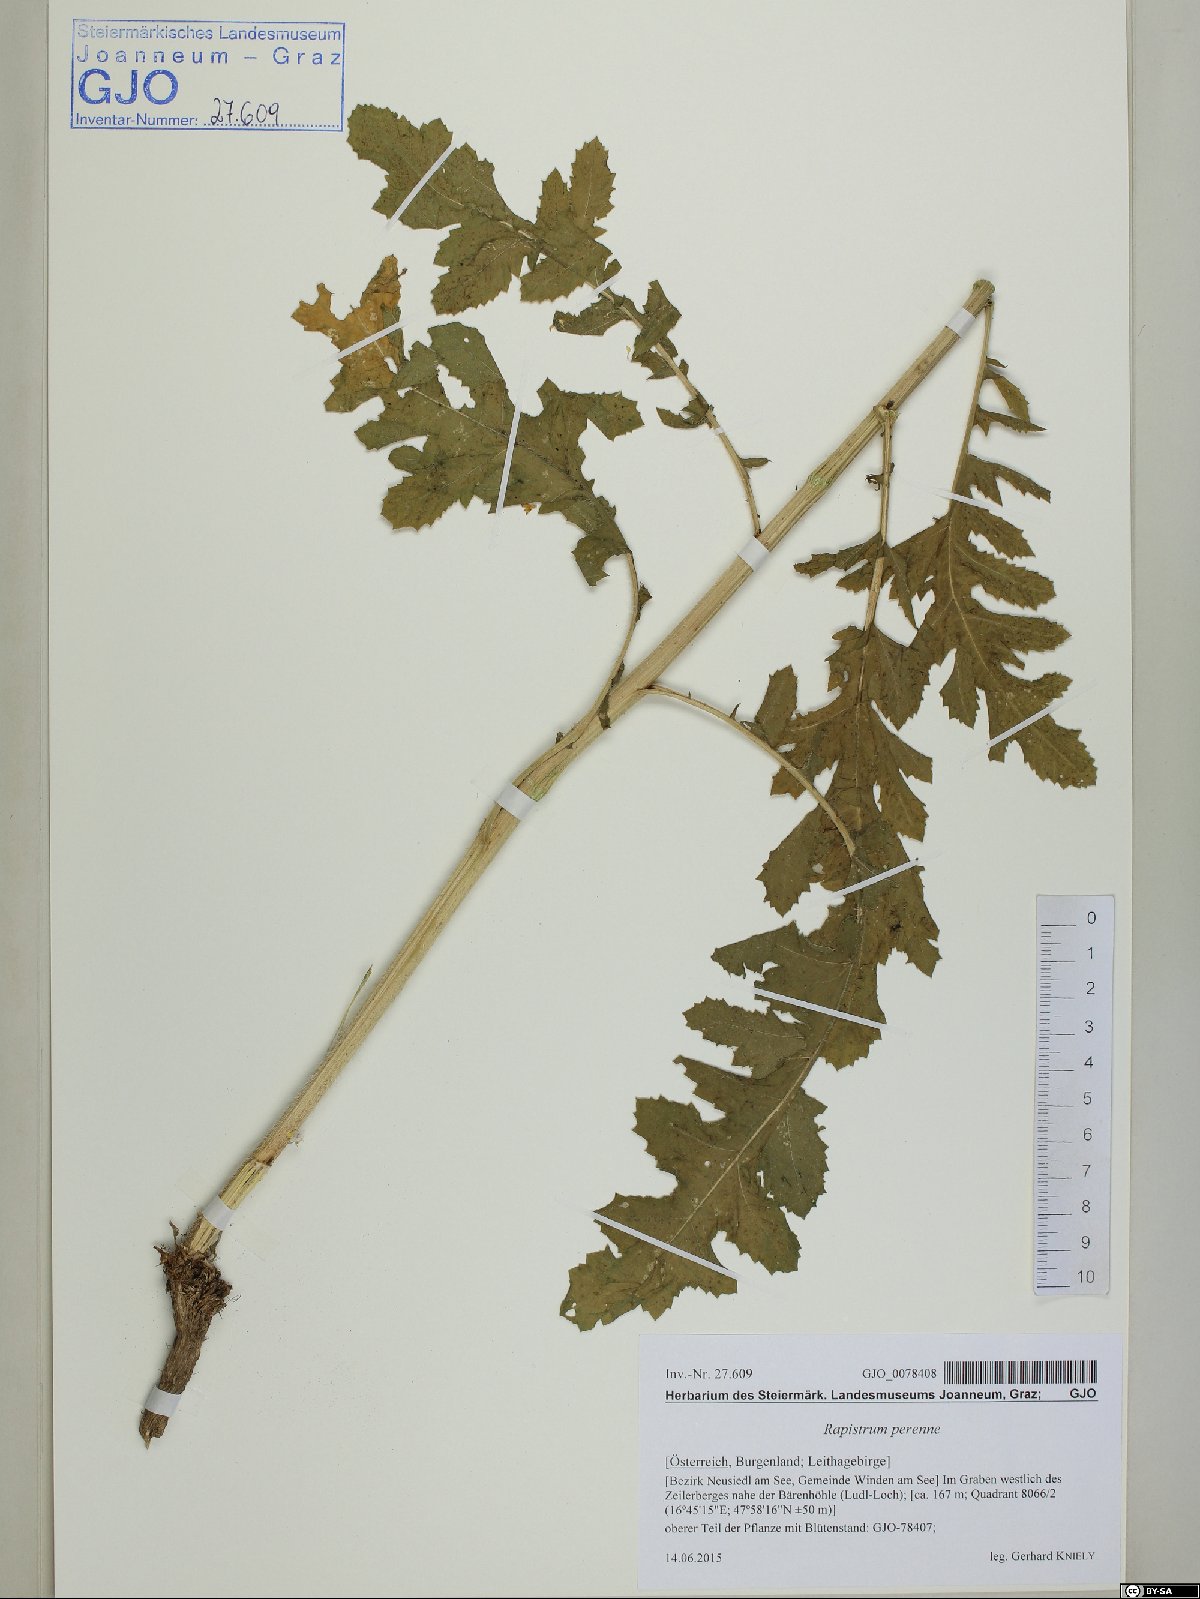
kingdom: Plantae
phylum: Tracheophyta
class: Magnoliopsida
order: Brassicales
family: Brassicaceae
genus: Rapistrum
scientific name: Rapistrum perenne
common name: Steppe cabbage
